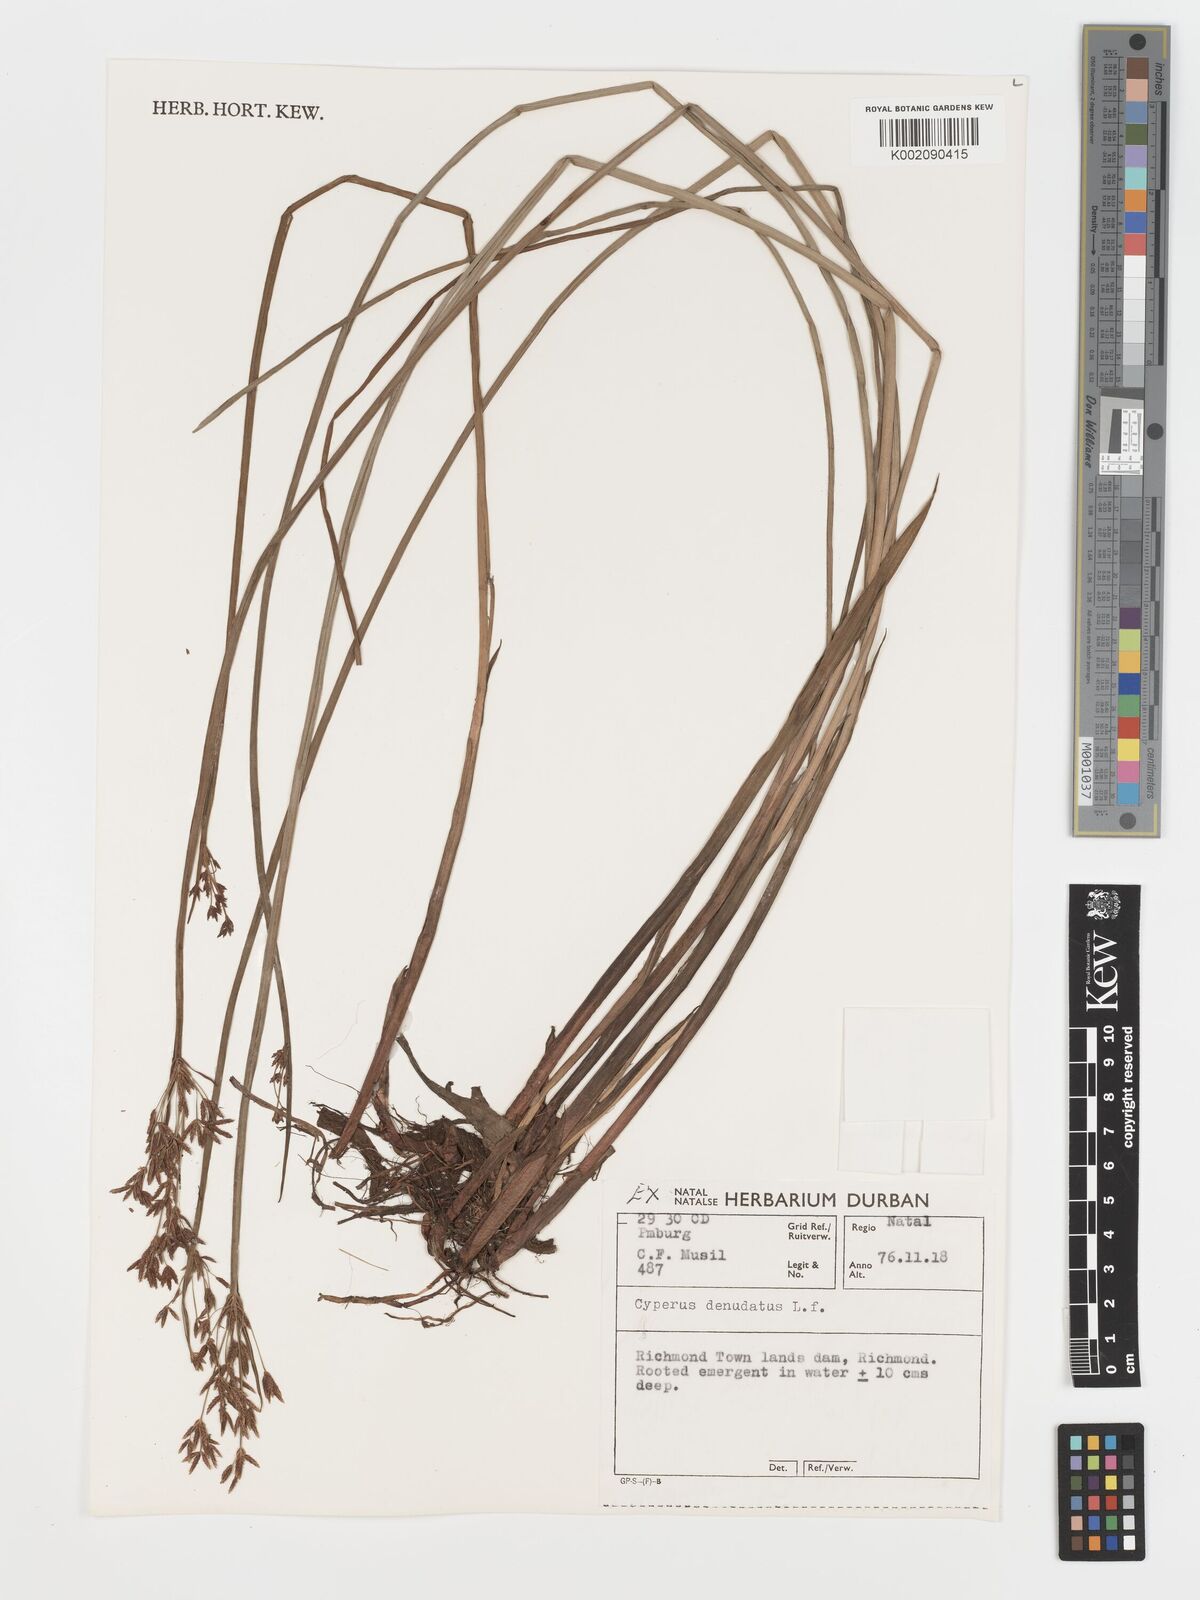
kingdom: Plantae
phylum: Tracheophyta
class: Liliopsida
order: Poales
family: Cyperaceae
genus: Cyperus
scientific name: Cyperus denudatus
